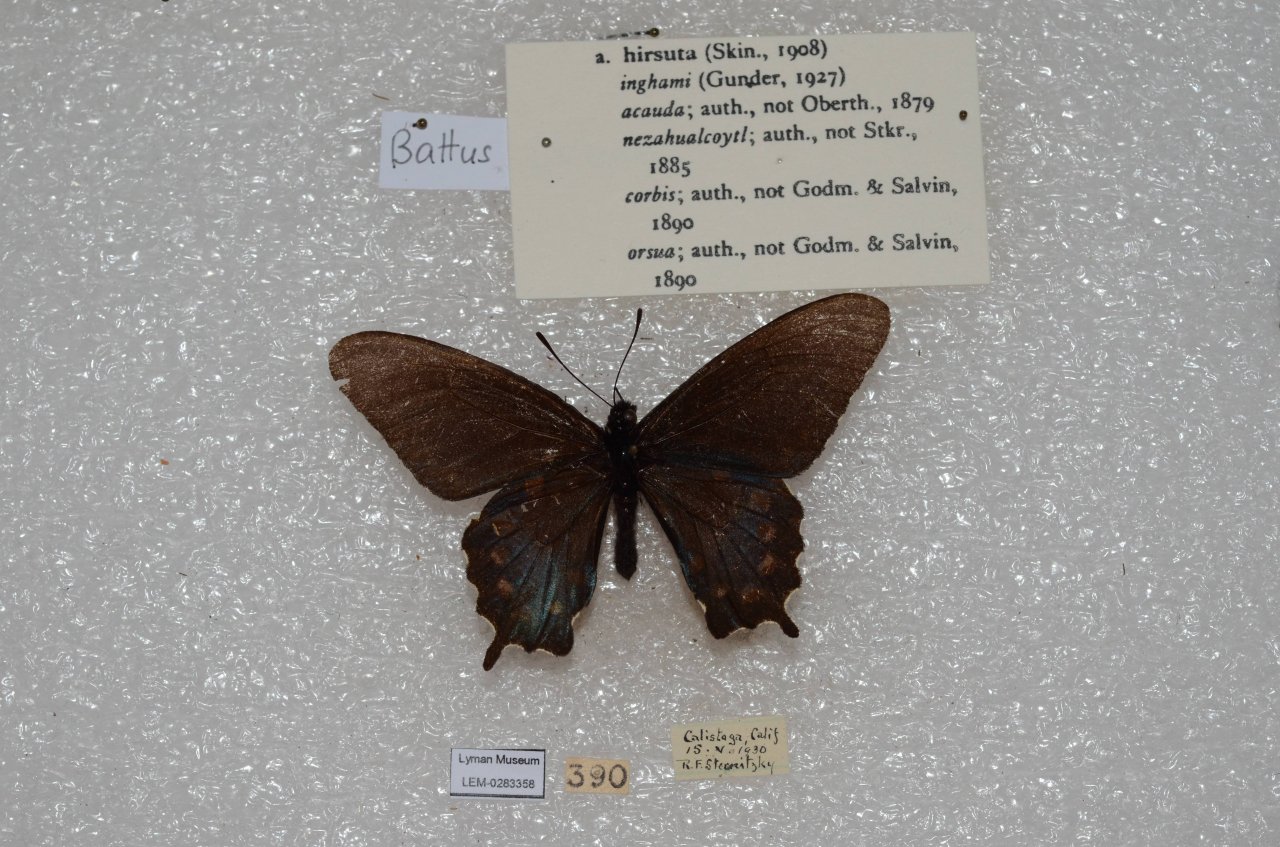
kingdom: Animalia
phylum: Arthropoda
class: Insecta
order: Lepidoptera
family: Papilionidae
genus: Battus
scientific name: Battus philenor
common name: Pipevine Swallowtail
